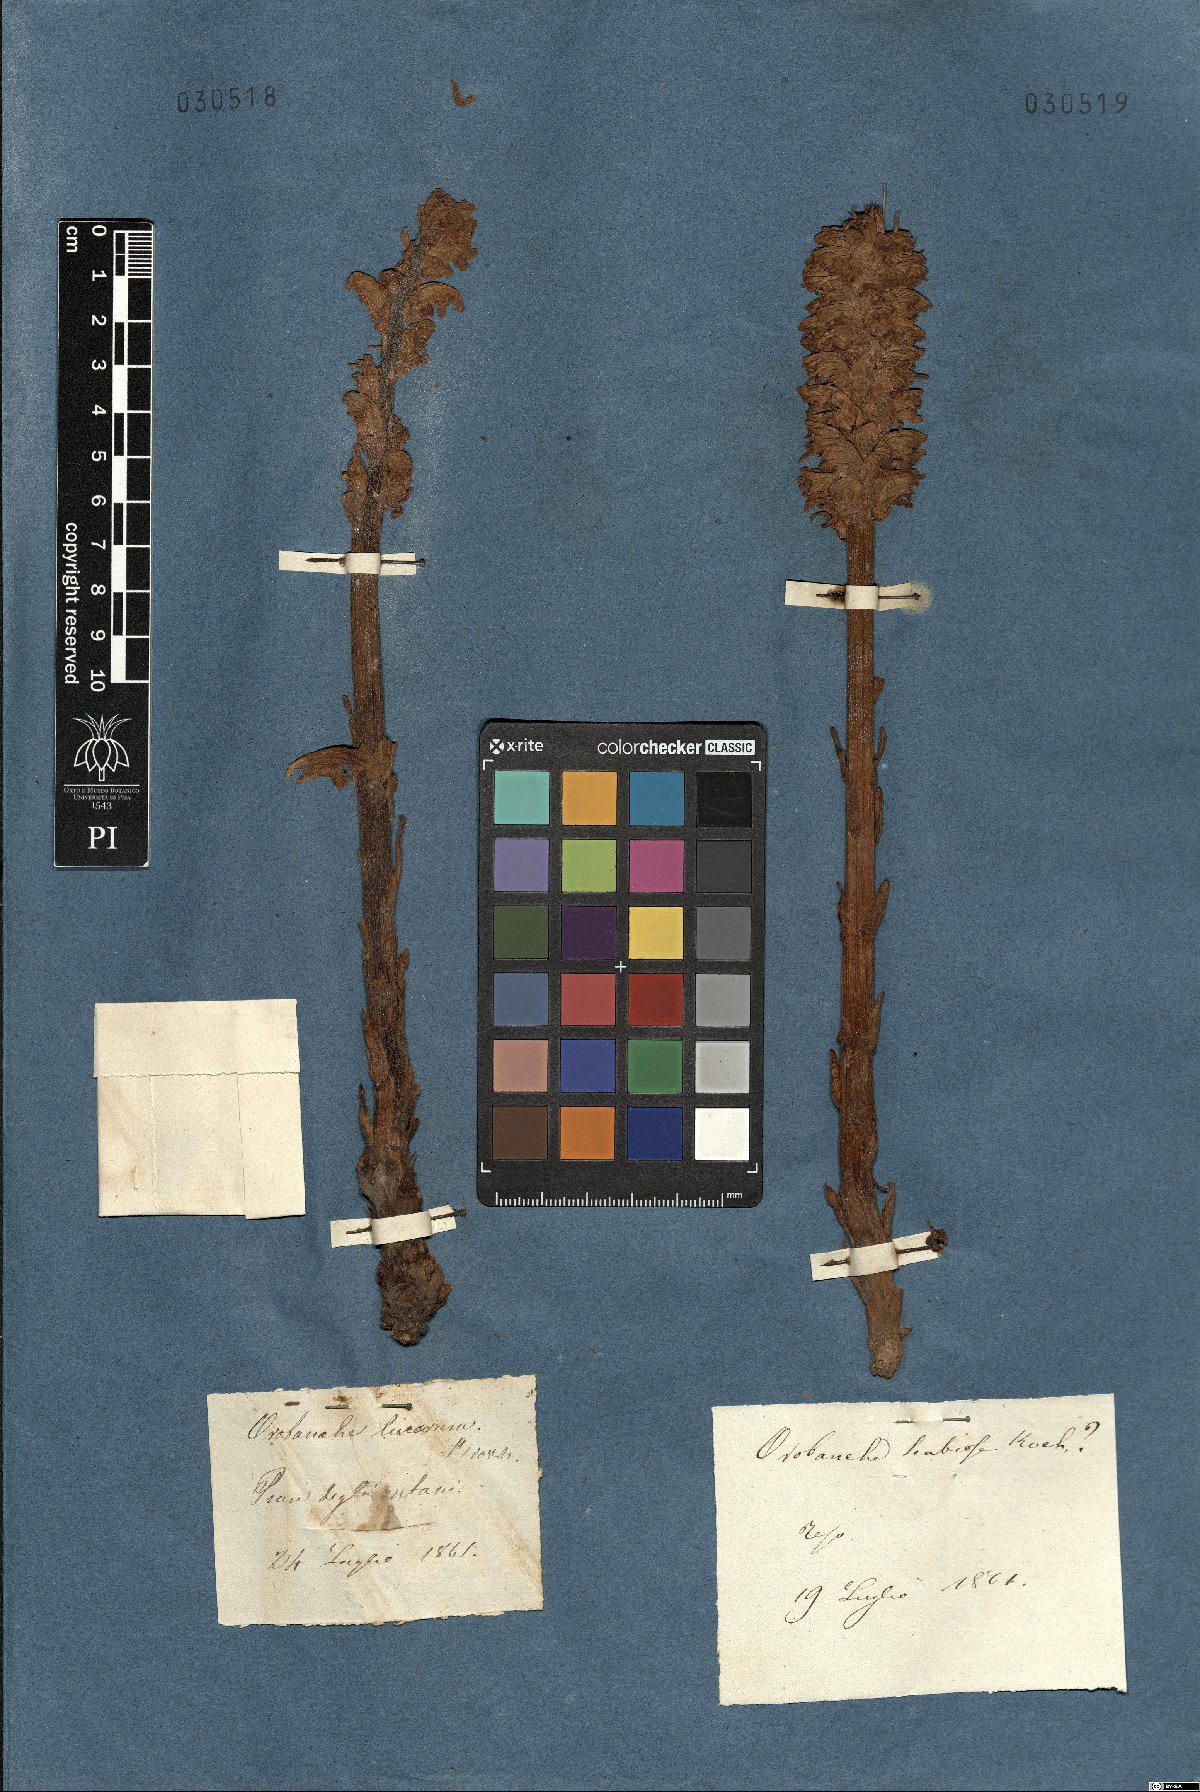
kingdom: Plantae
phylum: Tracheophyta
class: Magnoliopsida
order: Lamiales
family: Orobanchaceae
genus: Orobanche
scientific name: Orobanche reticulata
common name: Thistle broomrape
